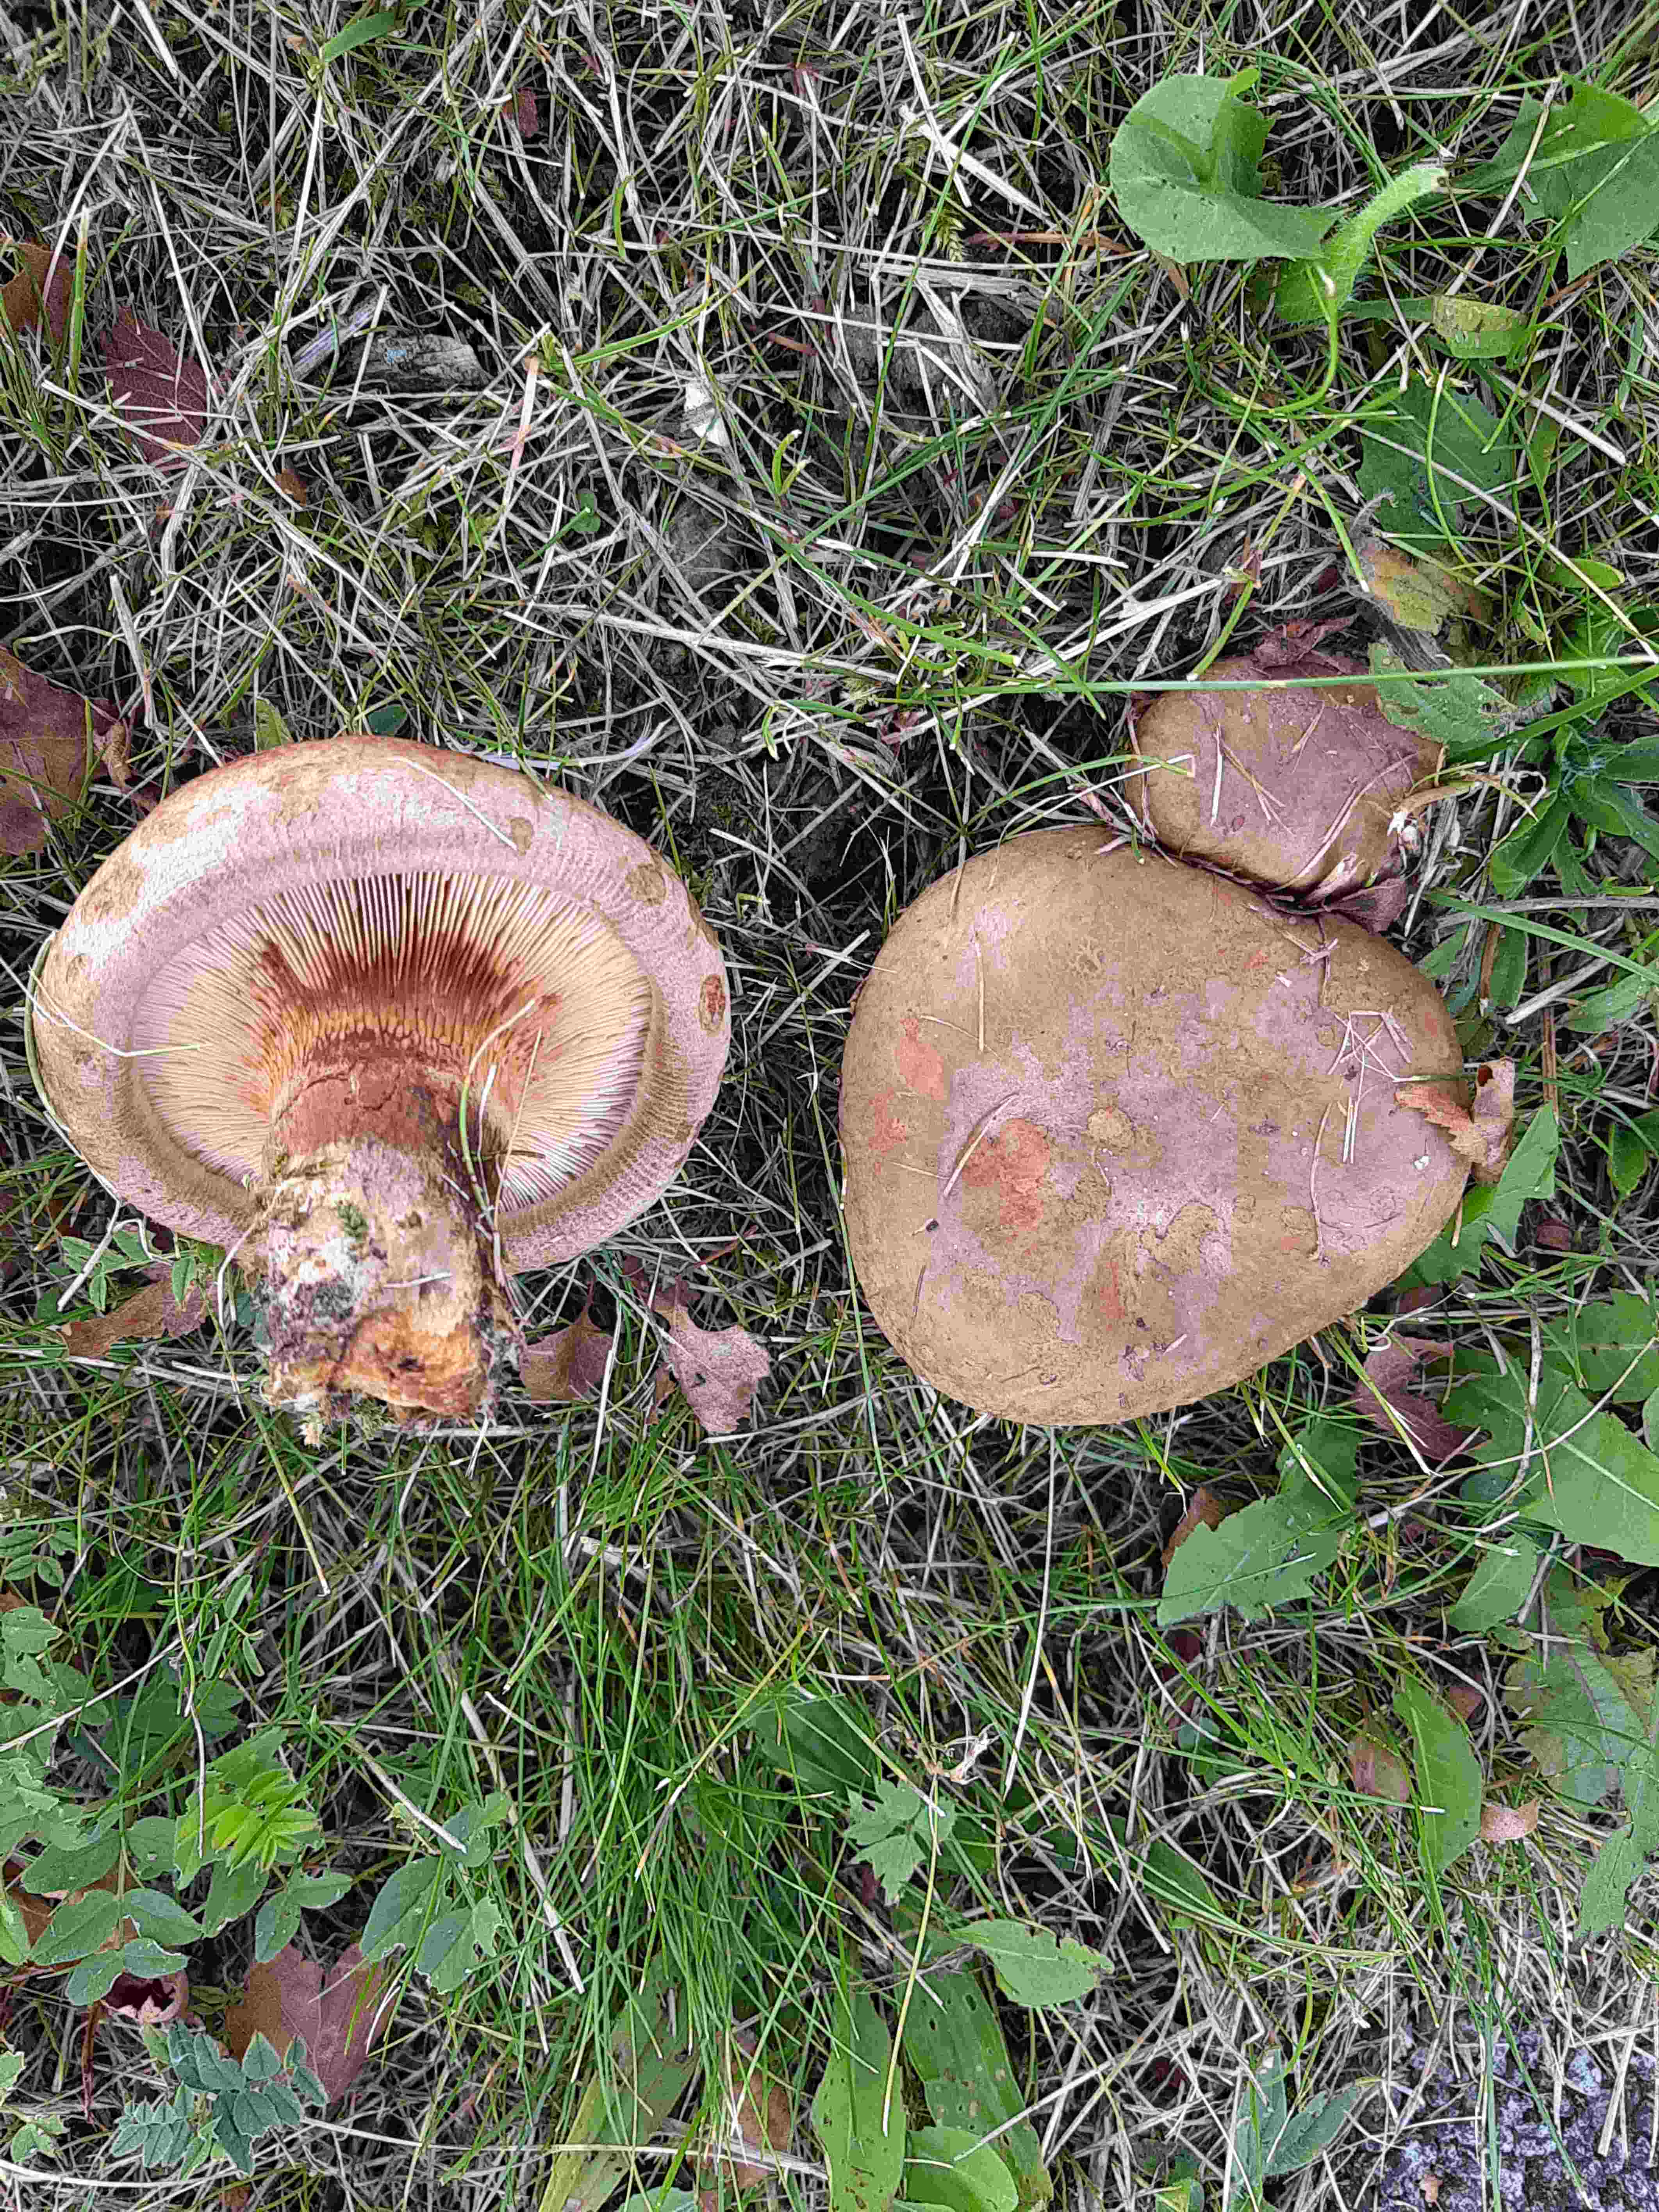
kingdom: Fungi
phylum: Basidiomycota
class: Agaricomycetes
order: Boletales
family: Paxillaceae
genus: Paxillus
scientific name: Paxillus involutus
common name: almindelig netbladhat
